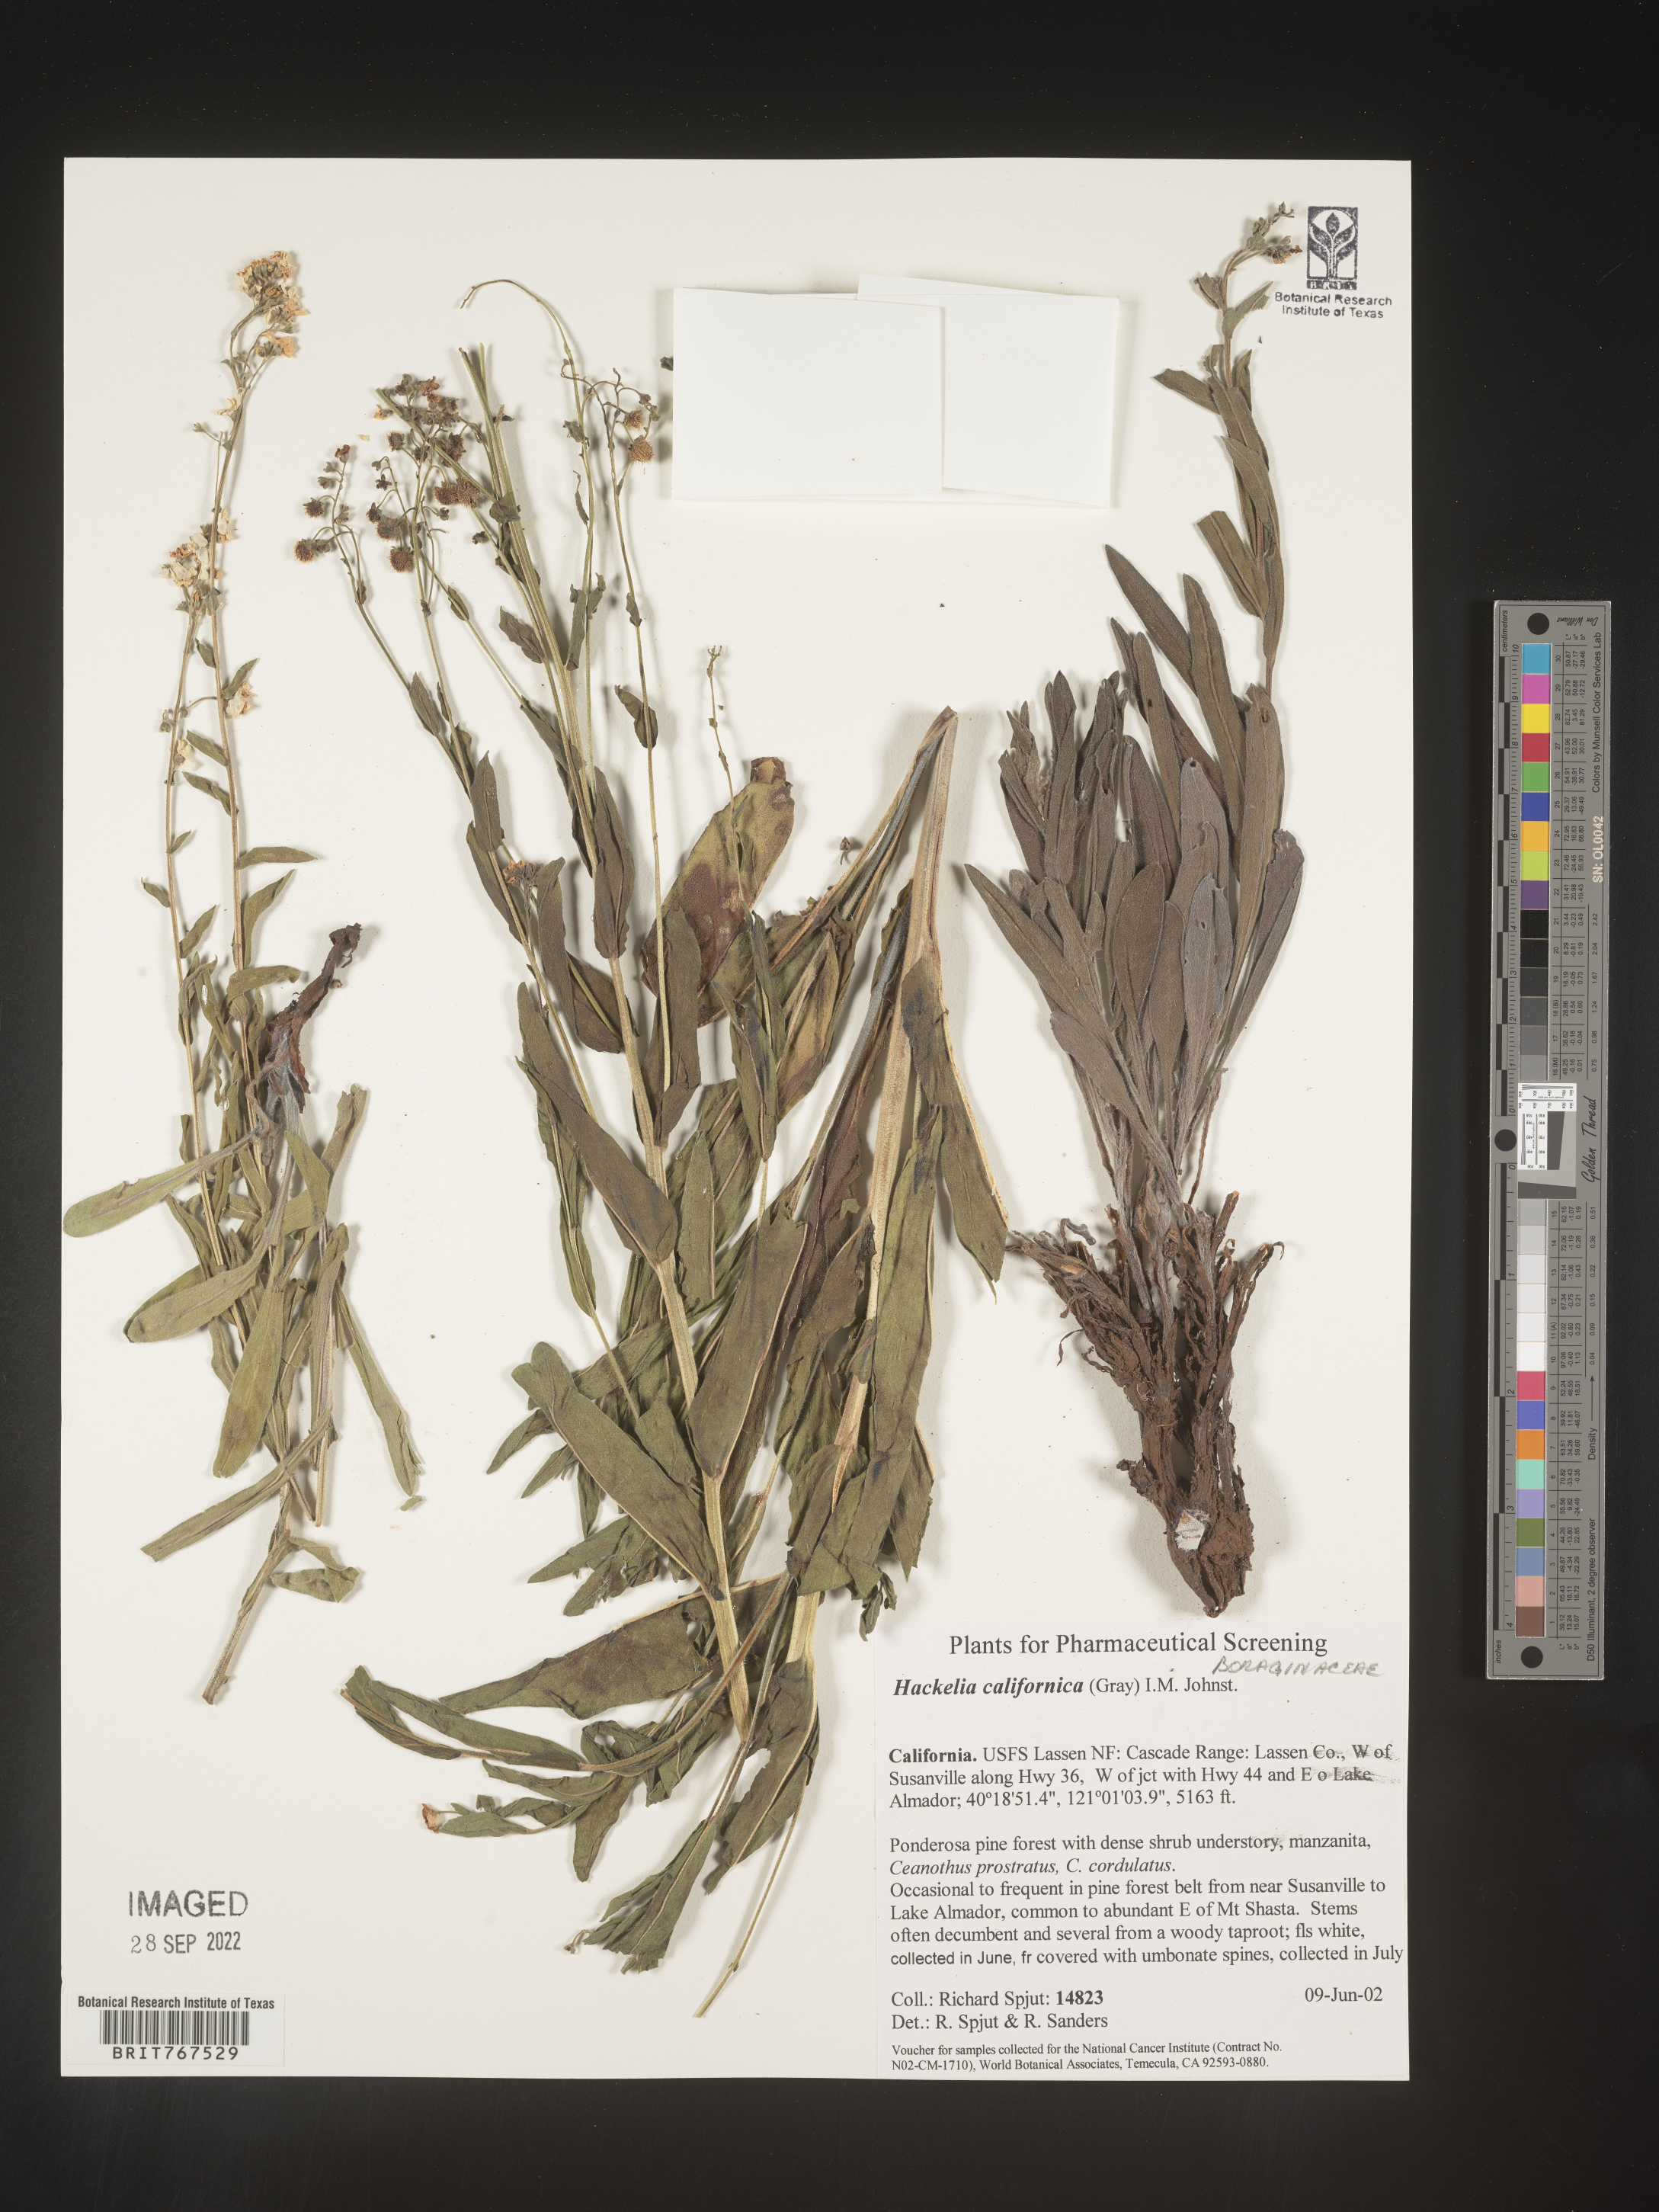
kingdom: Plantae
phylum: Tracheophyta
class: Magnoliopsida
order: Boraginales
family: Boraginaceae
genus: Hackelia
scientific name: Hackelia
